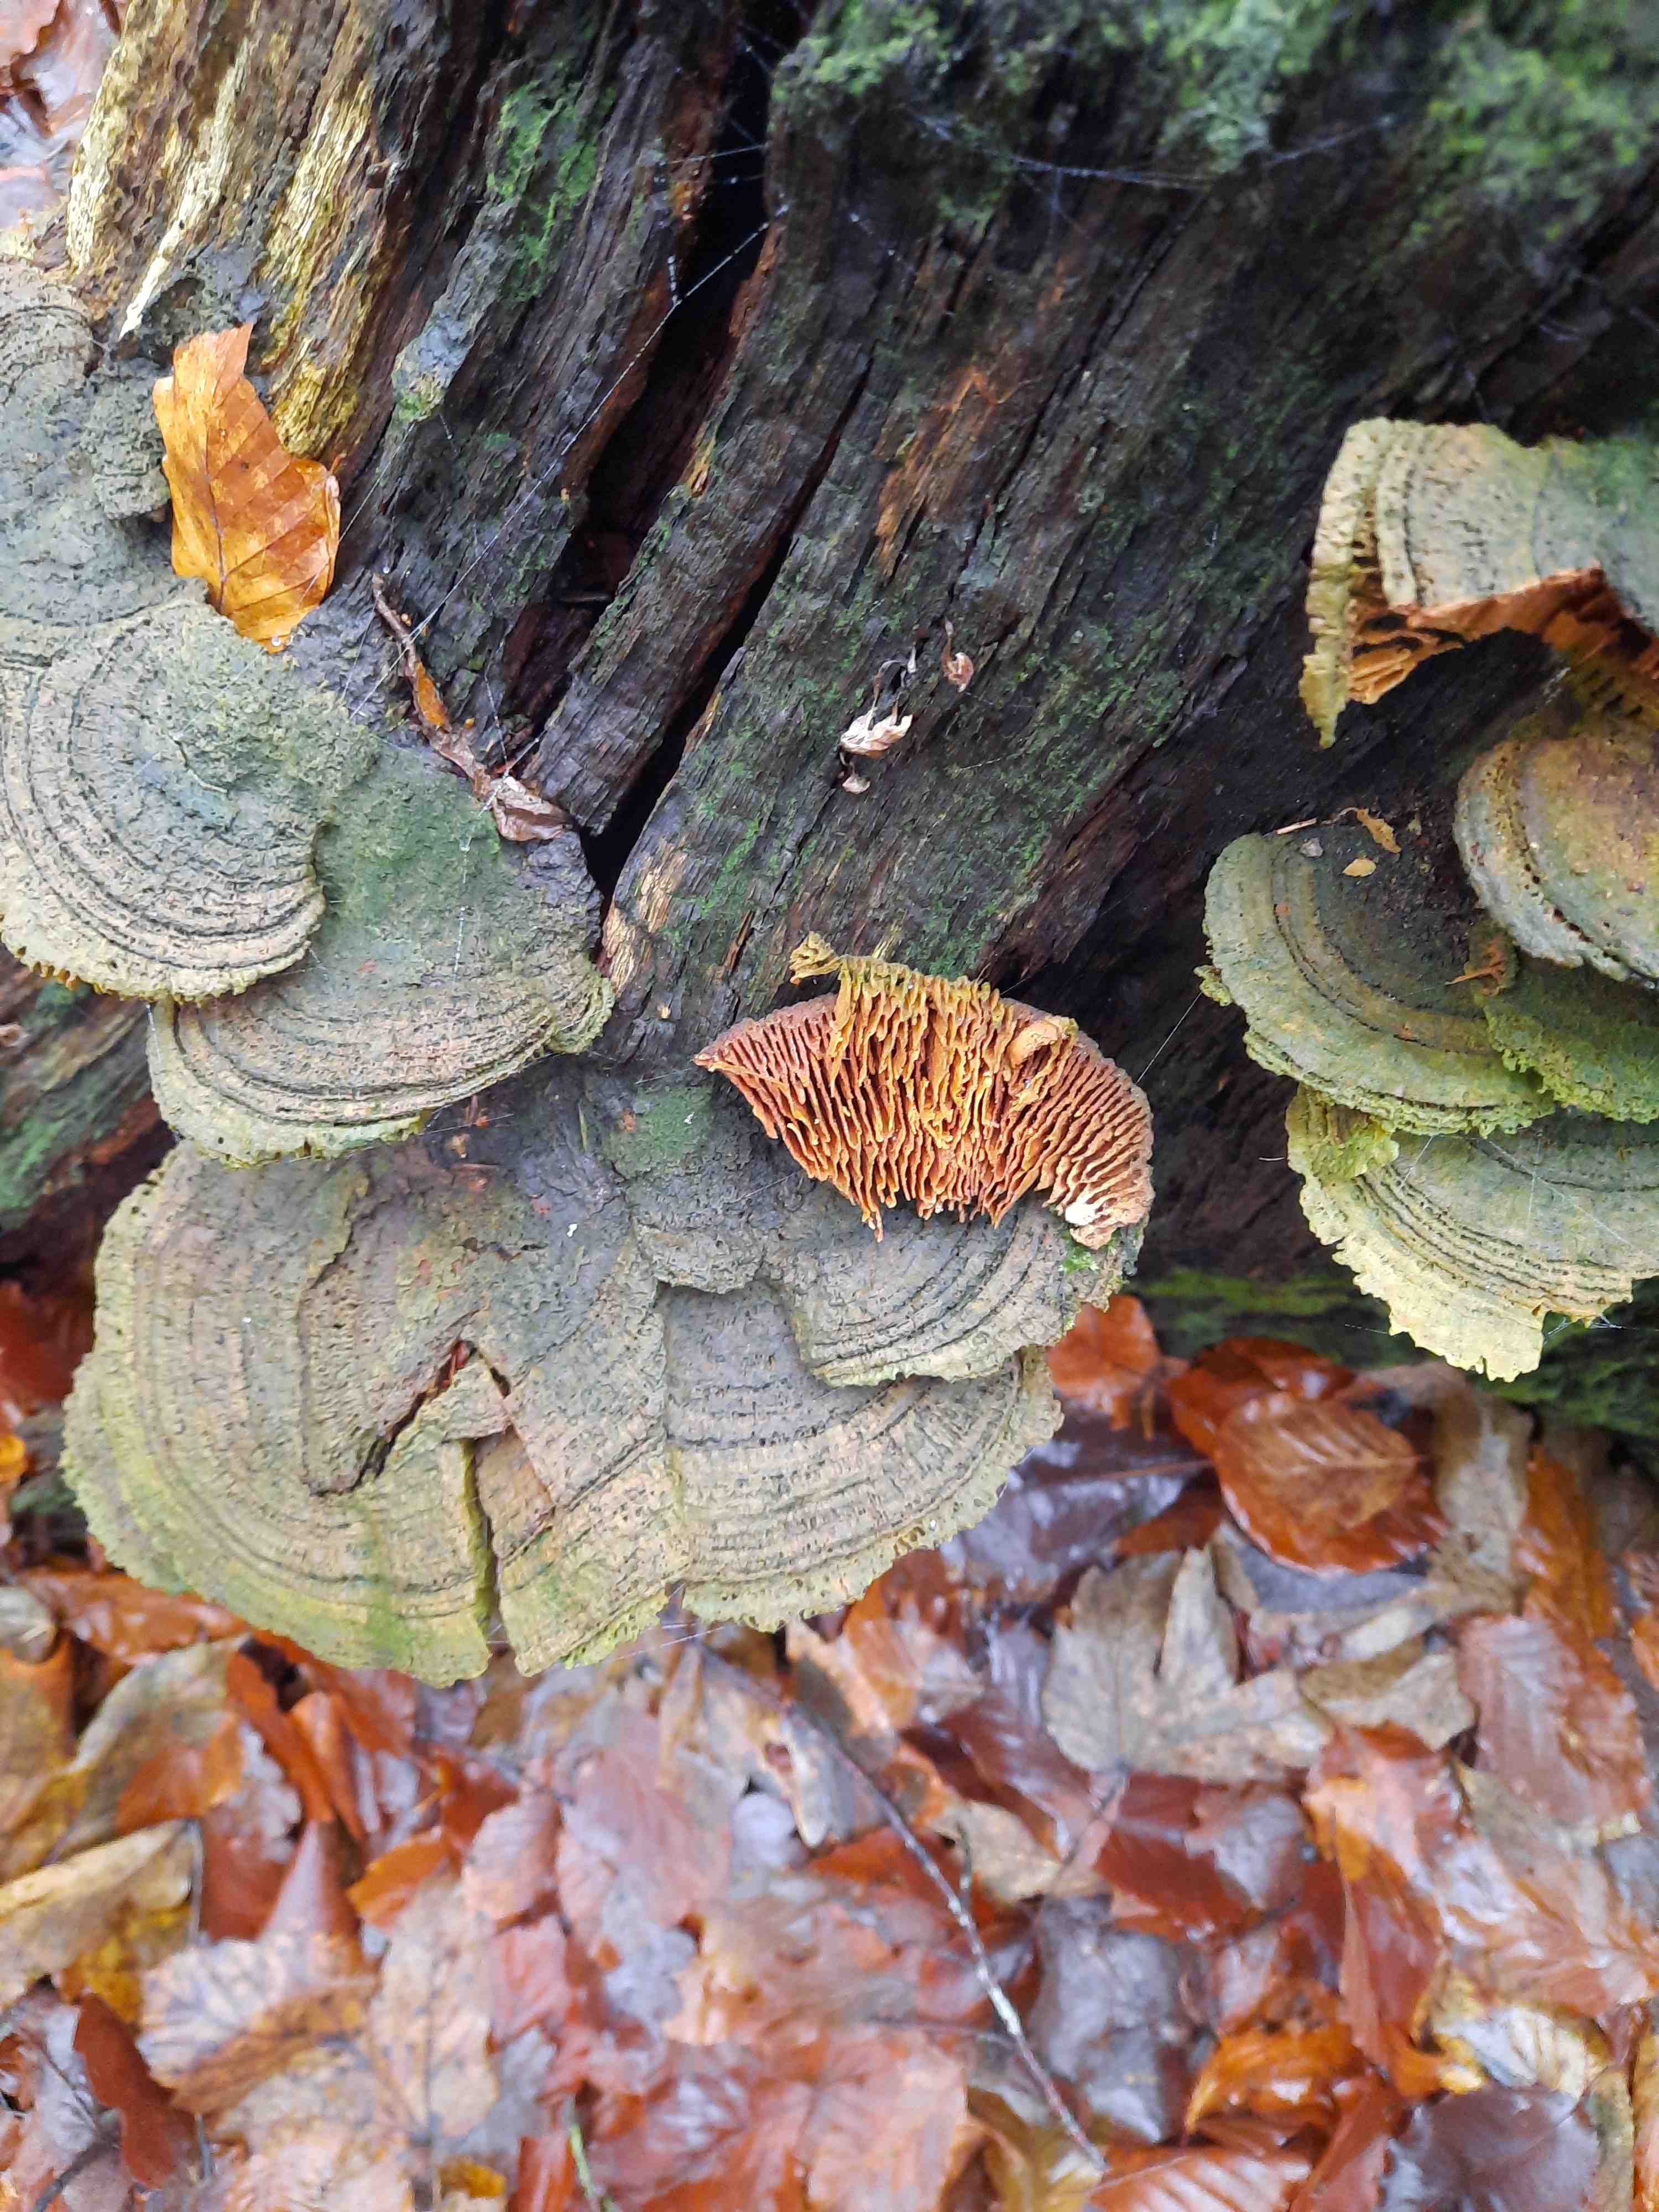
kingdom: Fungi
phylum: Basidiomycota
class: Agaricomycetes
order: Polyporales
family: Fomitopsidaceae
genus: Daedalea
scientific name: Daedalea quercina
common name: ege-labyrintsvamp
